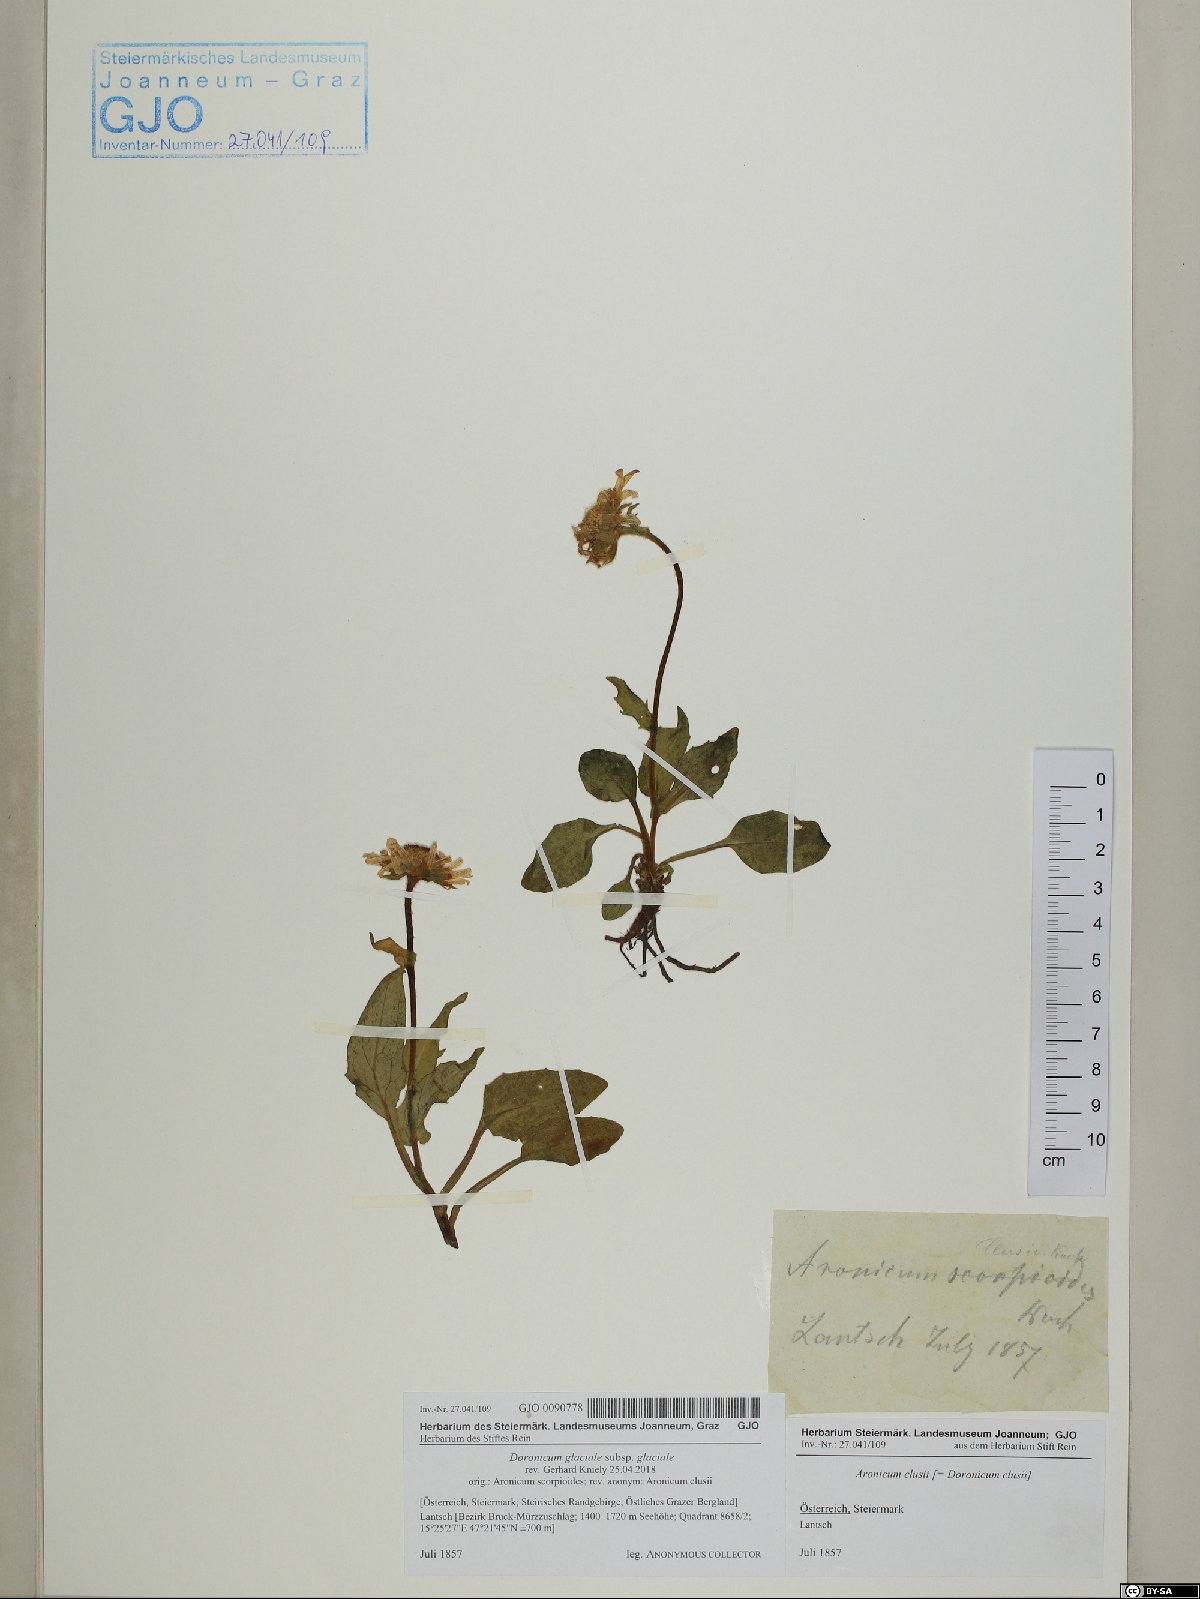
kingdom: Plantae
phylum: Tracheophyta
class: Magnoliopsida
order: Asterales
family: Asteraceae
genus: Doronicum
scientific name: Doronicum glaciale
